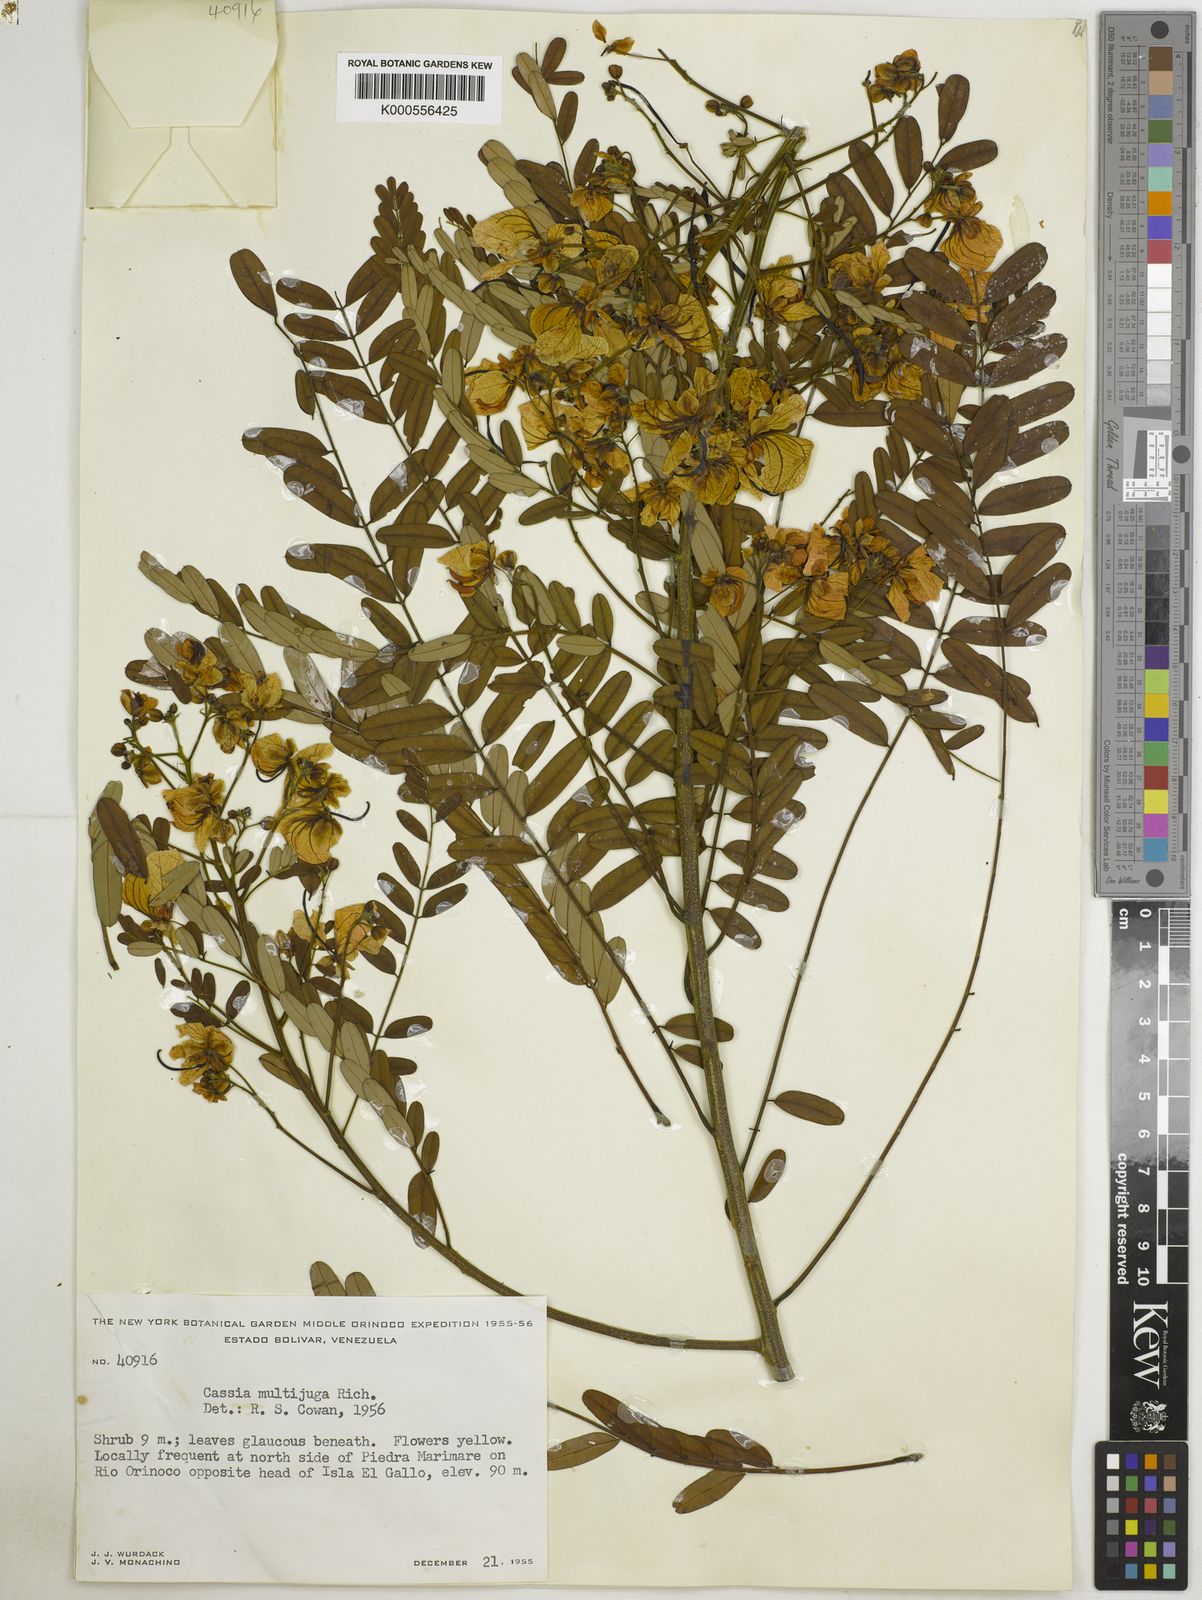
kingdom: Plantae
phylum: Tracheophyta
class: Magnoliopsida
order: Fabales
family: Fabaceae
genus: Senna
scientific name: Senna multijuga
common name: False sicklepod
